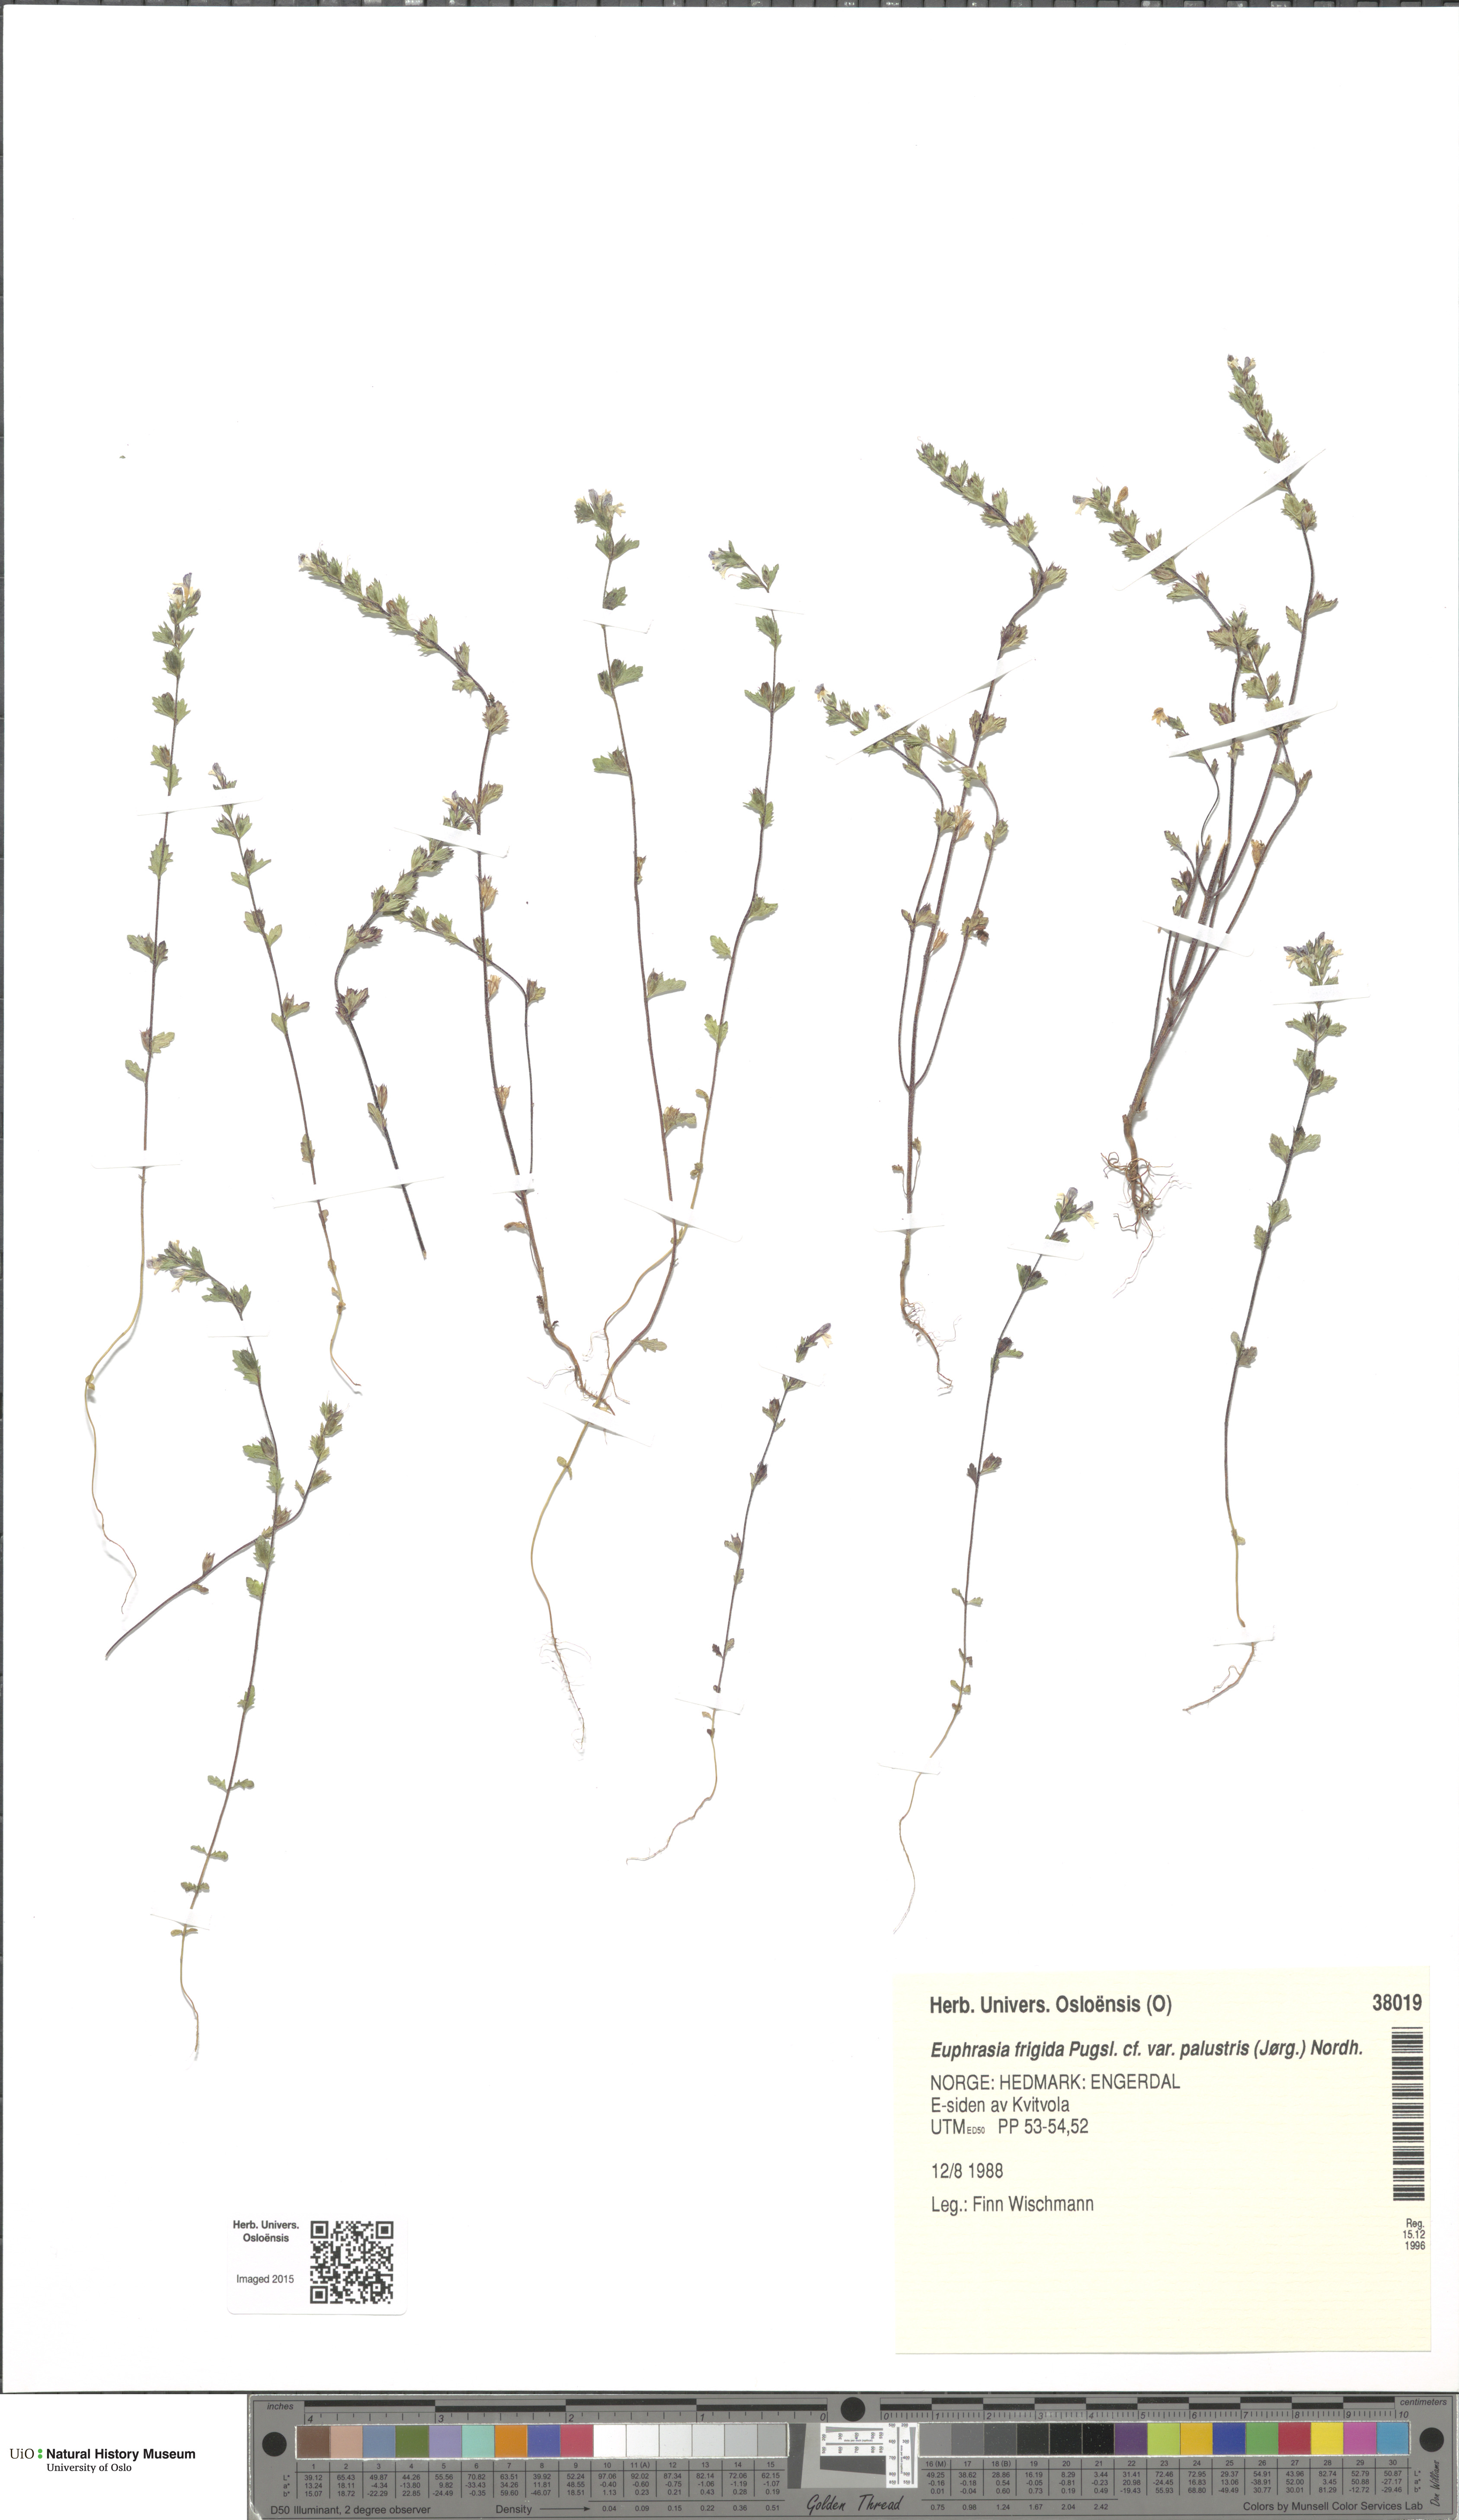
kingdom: Plantae
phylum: Tracheophyta
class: Magnoliopsida
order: Lamiales
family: Orobanchaceae
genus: Euphrasia
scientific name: Euphrasia wettsteinii
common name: Wettstein's eyebright
